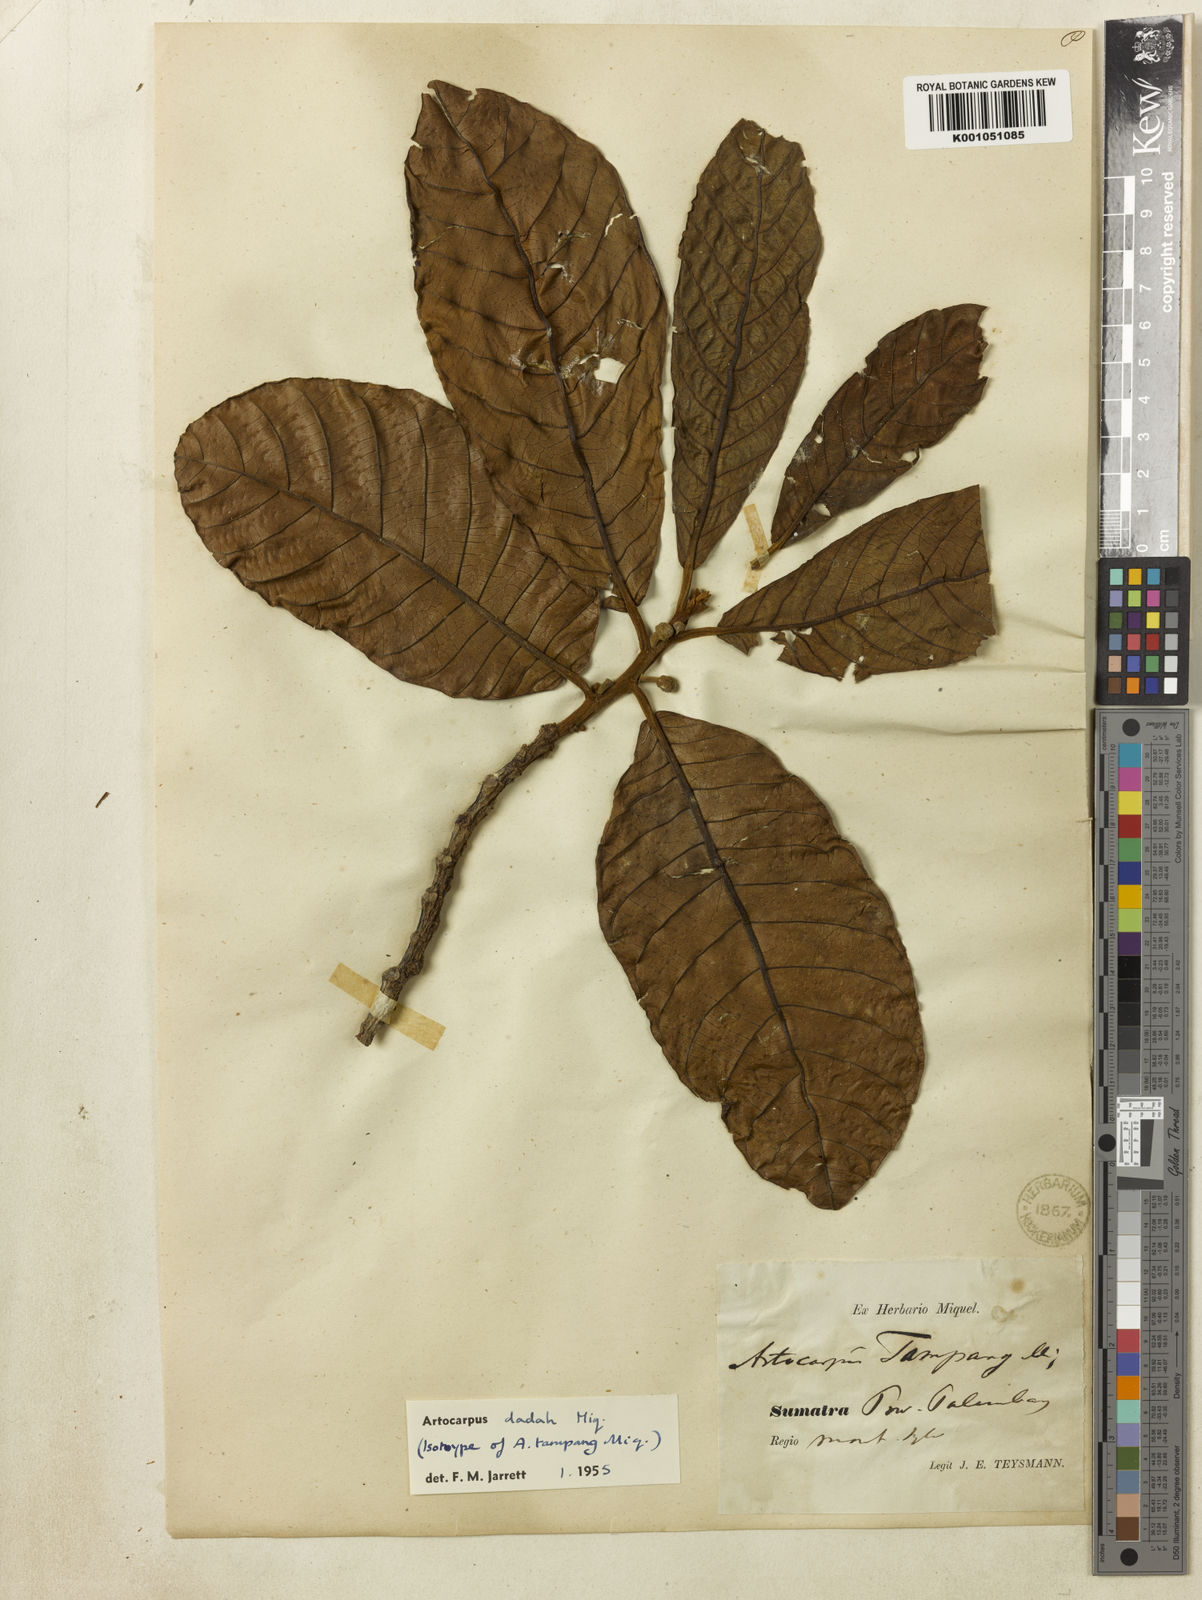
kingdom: Plantae
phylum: Tracheophyta
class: Magnoliopsida
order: Rosales
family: Moraceae
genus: Artocarpus
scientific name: Artocarpus lacucha
